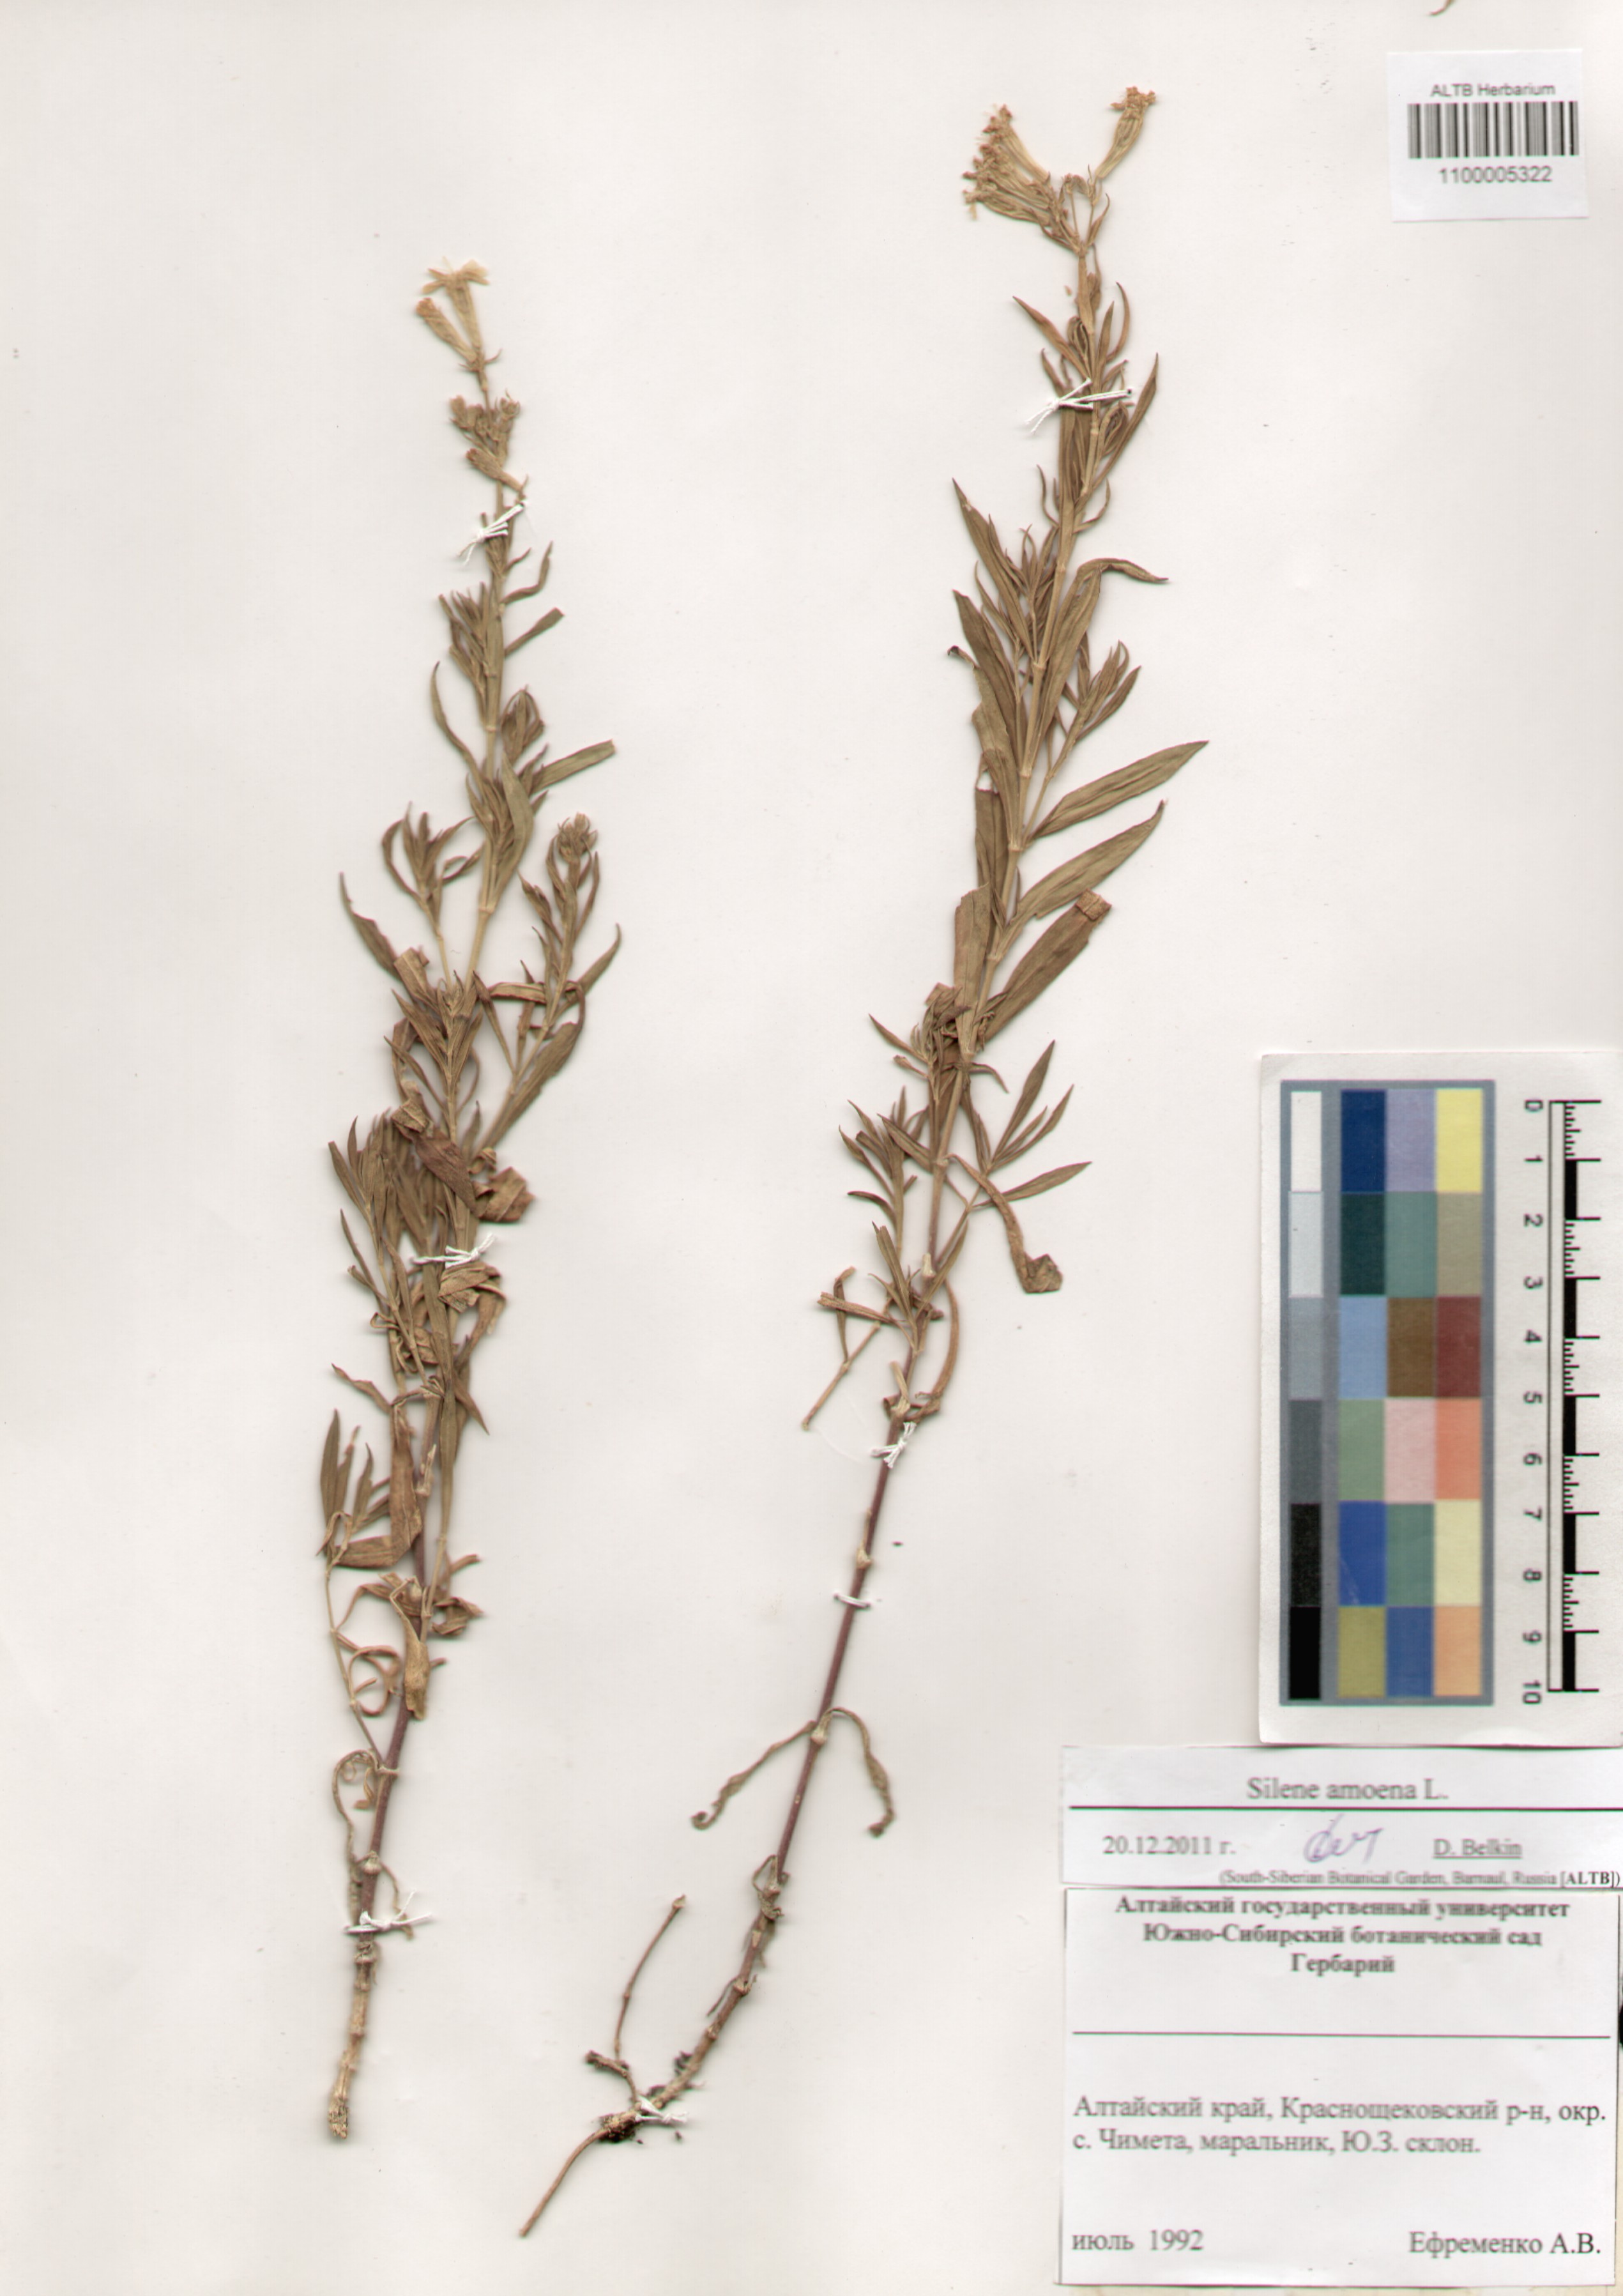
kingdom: Plantae
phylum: Tracheophyta
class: Magnoliopsida
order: Caryophyllales
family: Caryophyllaceae
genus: Silene
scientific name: Silene amoena
